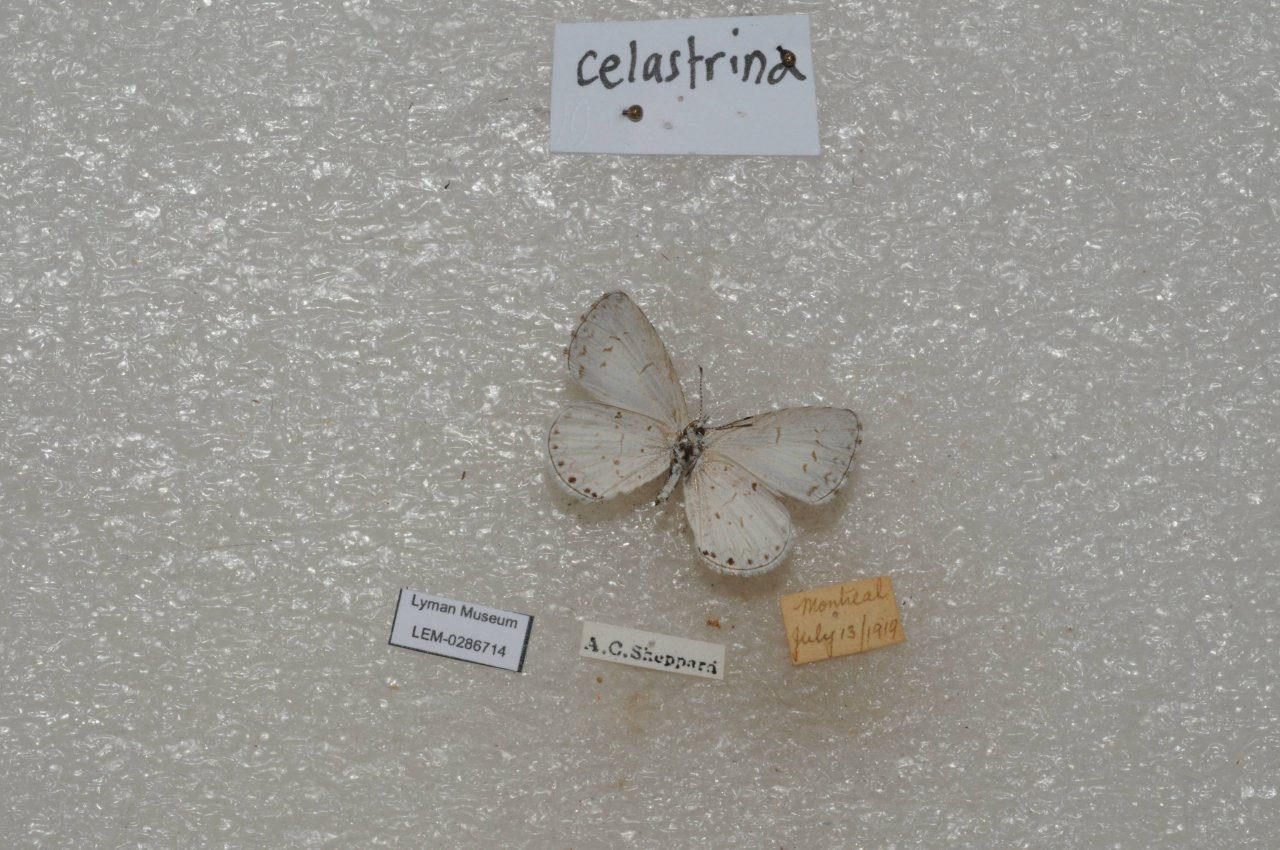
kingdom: Animalia
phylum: Arthropoda
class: Insecta
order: Lepidoptera
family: Lycaenidae
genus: Celastrina
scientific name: Celastrina lucia
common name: Northern Spring Azure
